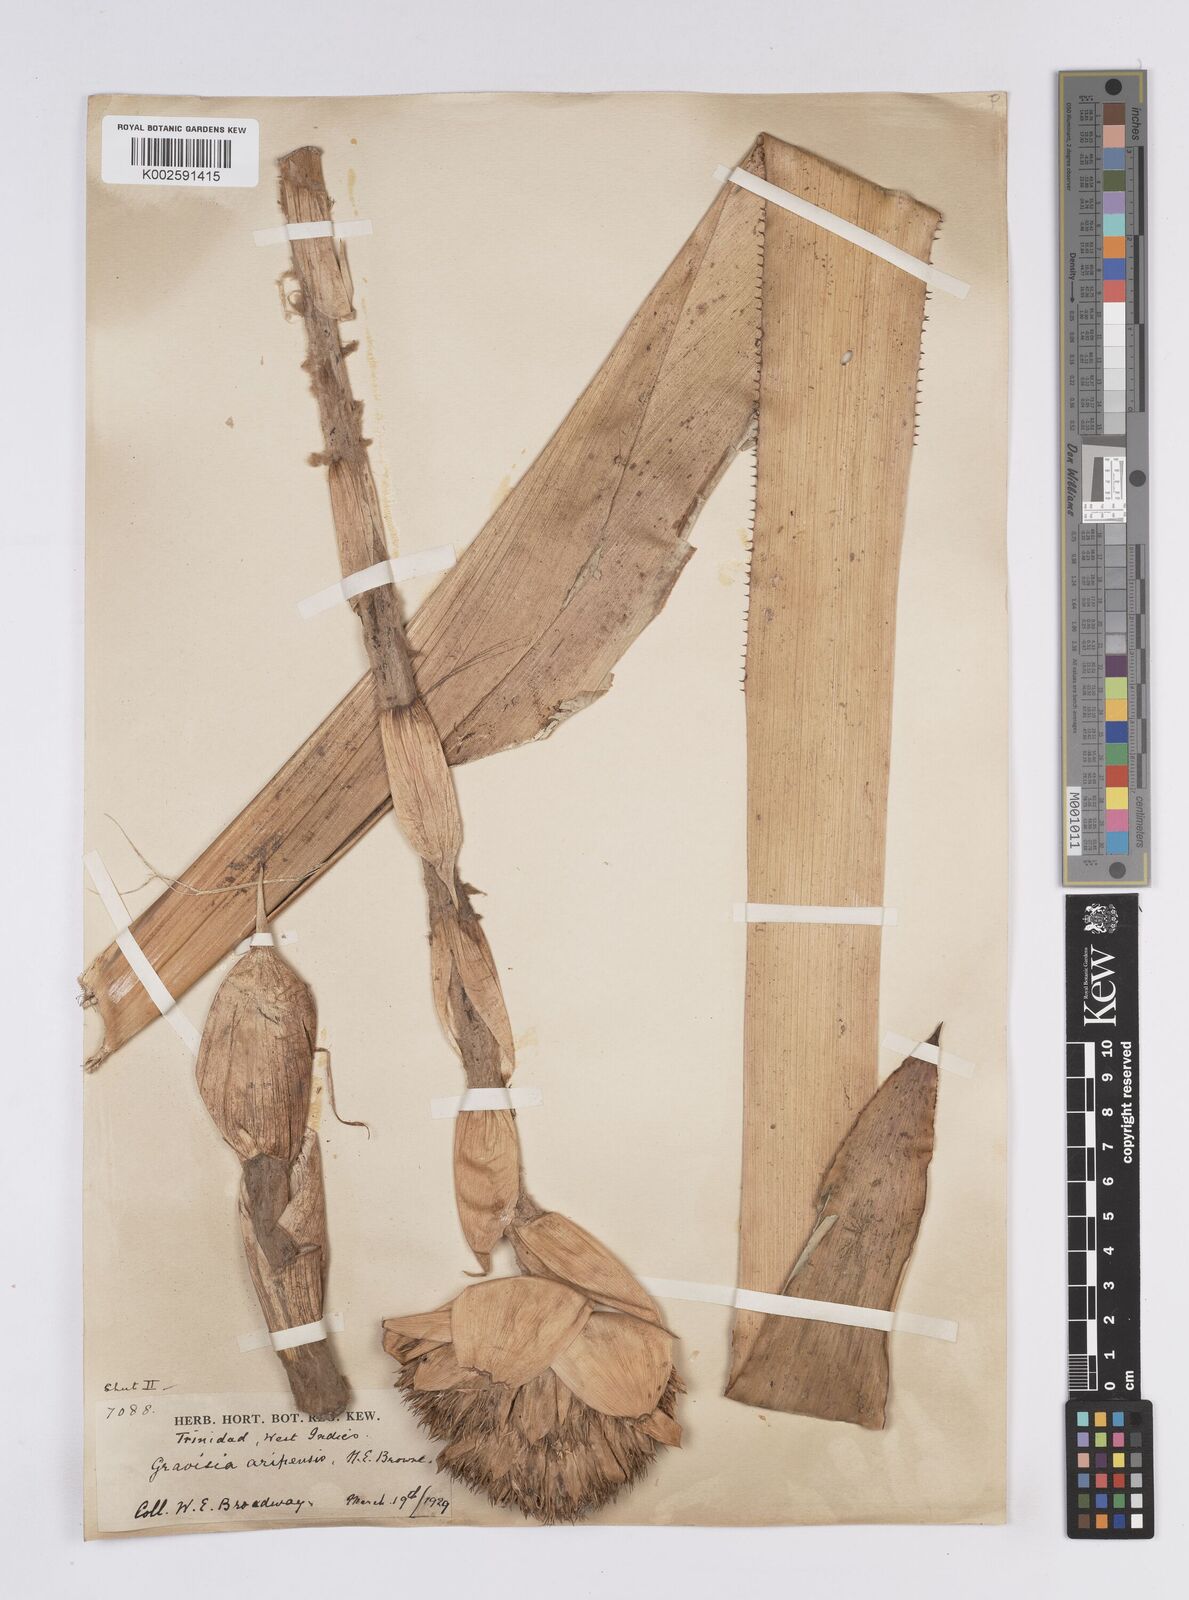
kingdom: Plantae
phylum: Tracheophyta
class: Liliopsida
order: Poales
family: Bromeliaceae
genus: Aechmea
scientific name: Aechmea
